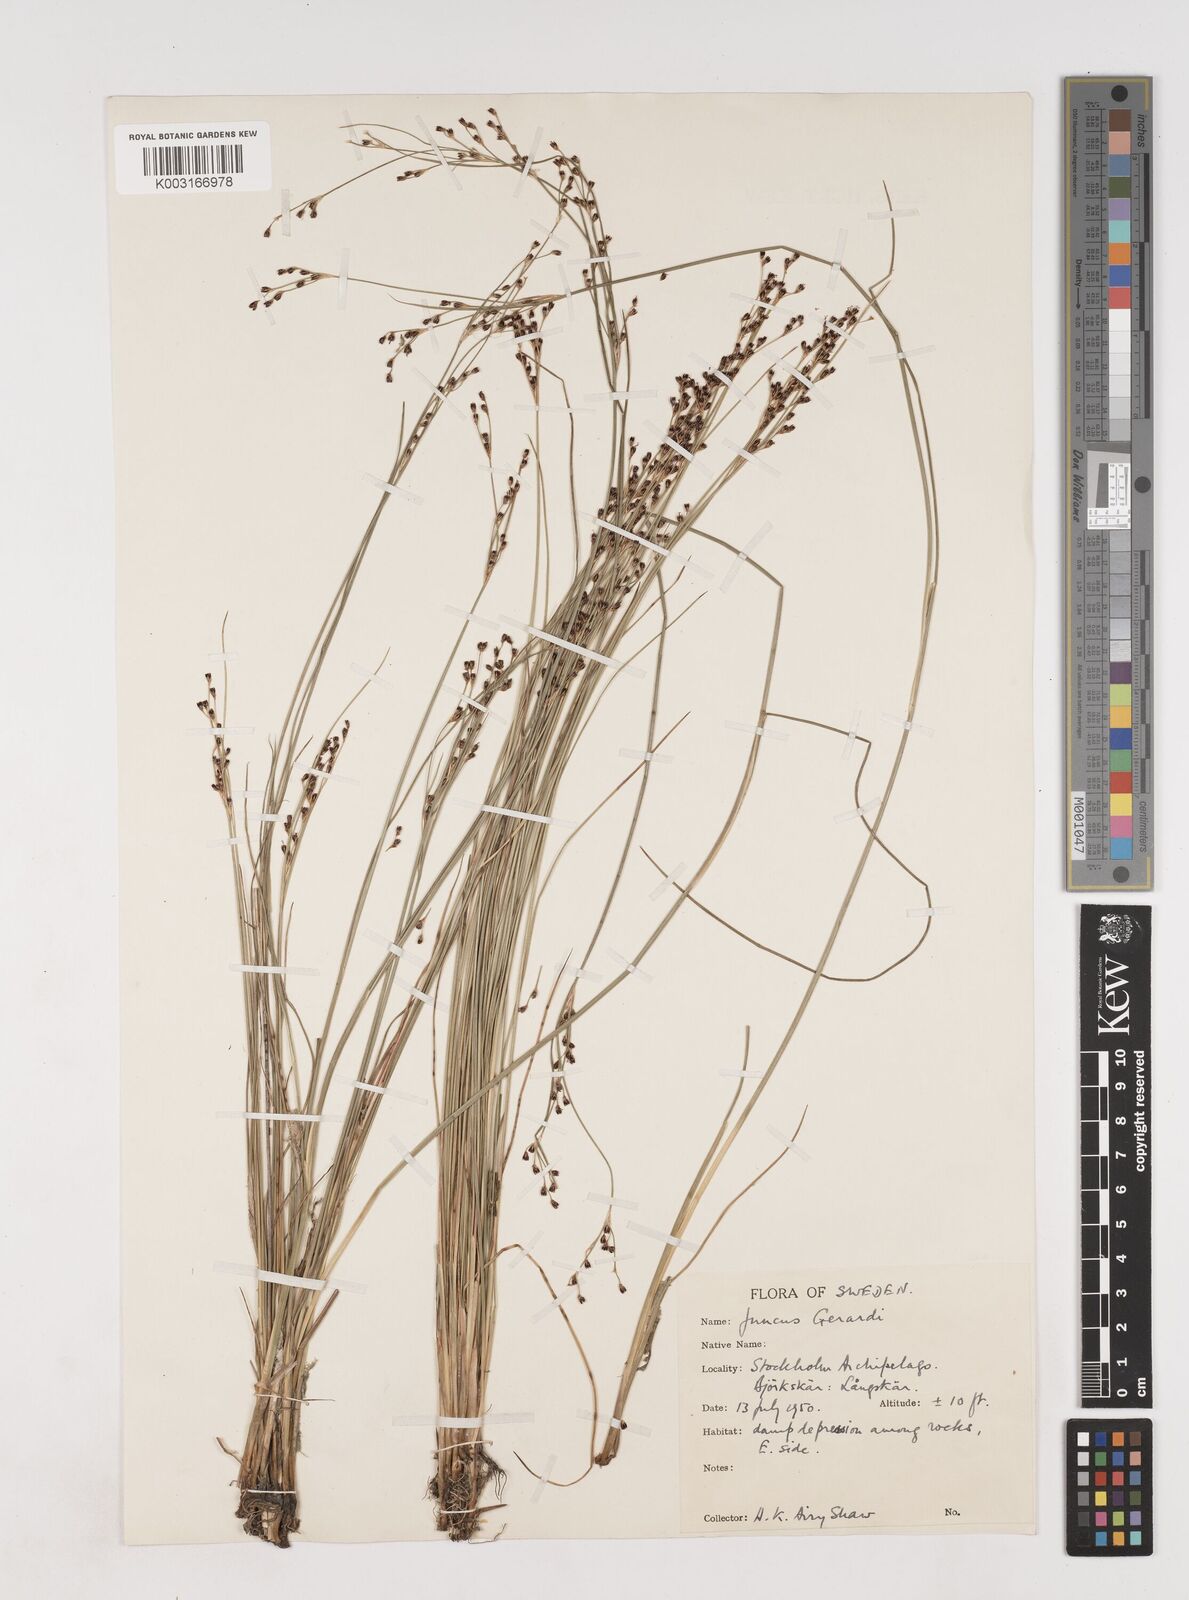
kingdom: Plantae
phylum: Tracheophyta
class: Liliopsida
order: Poales
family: Juncaceae
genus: Juncus
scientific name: Juncus gerardi
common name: Saltmarsh rush
